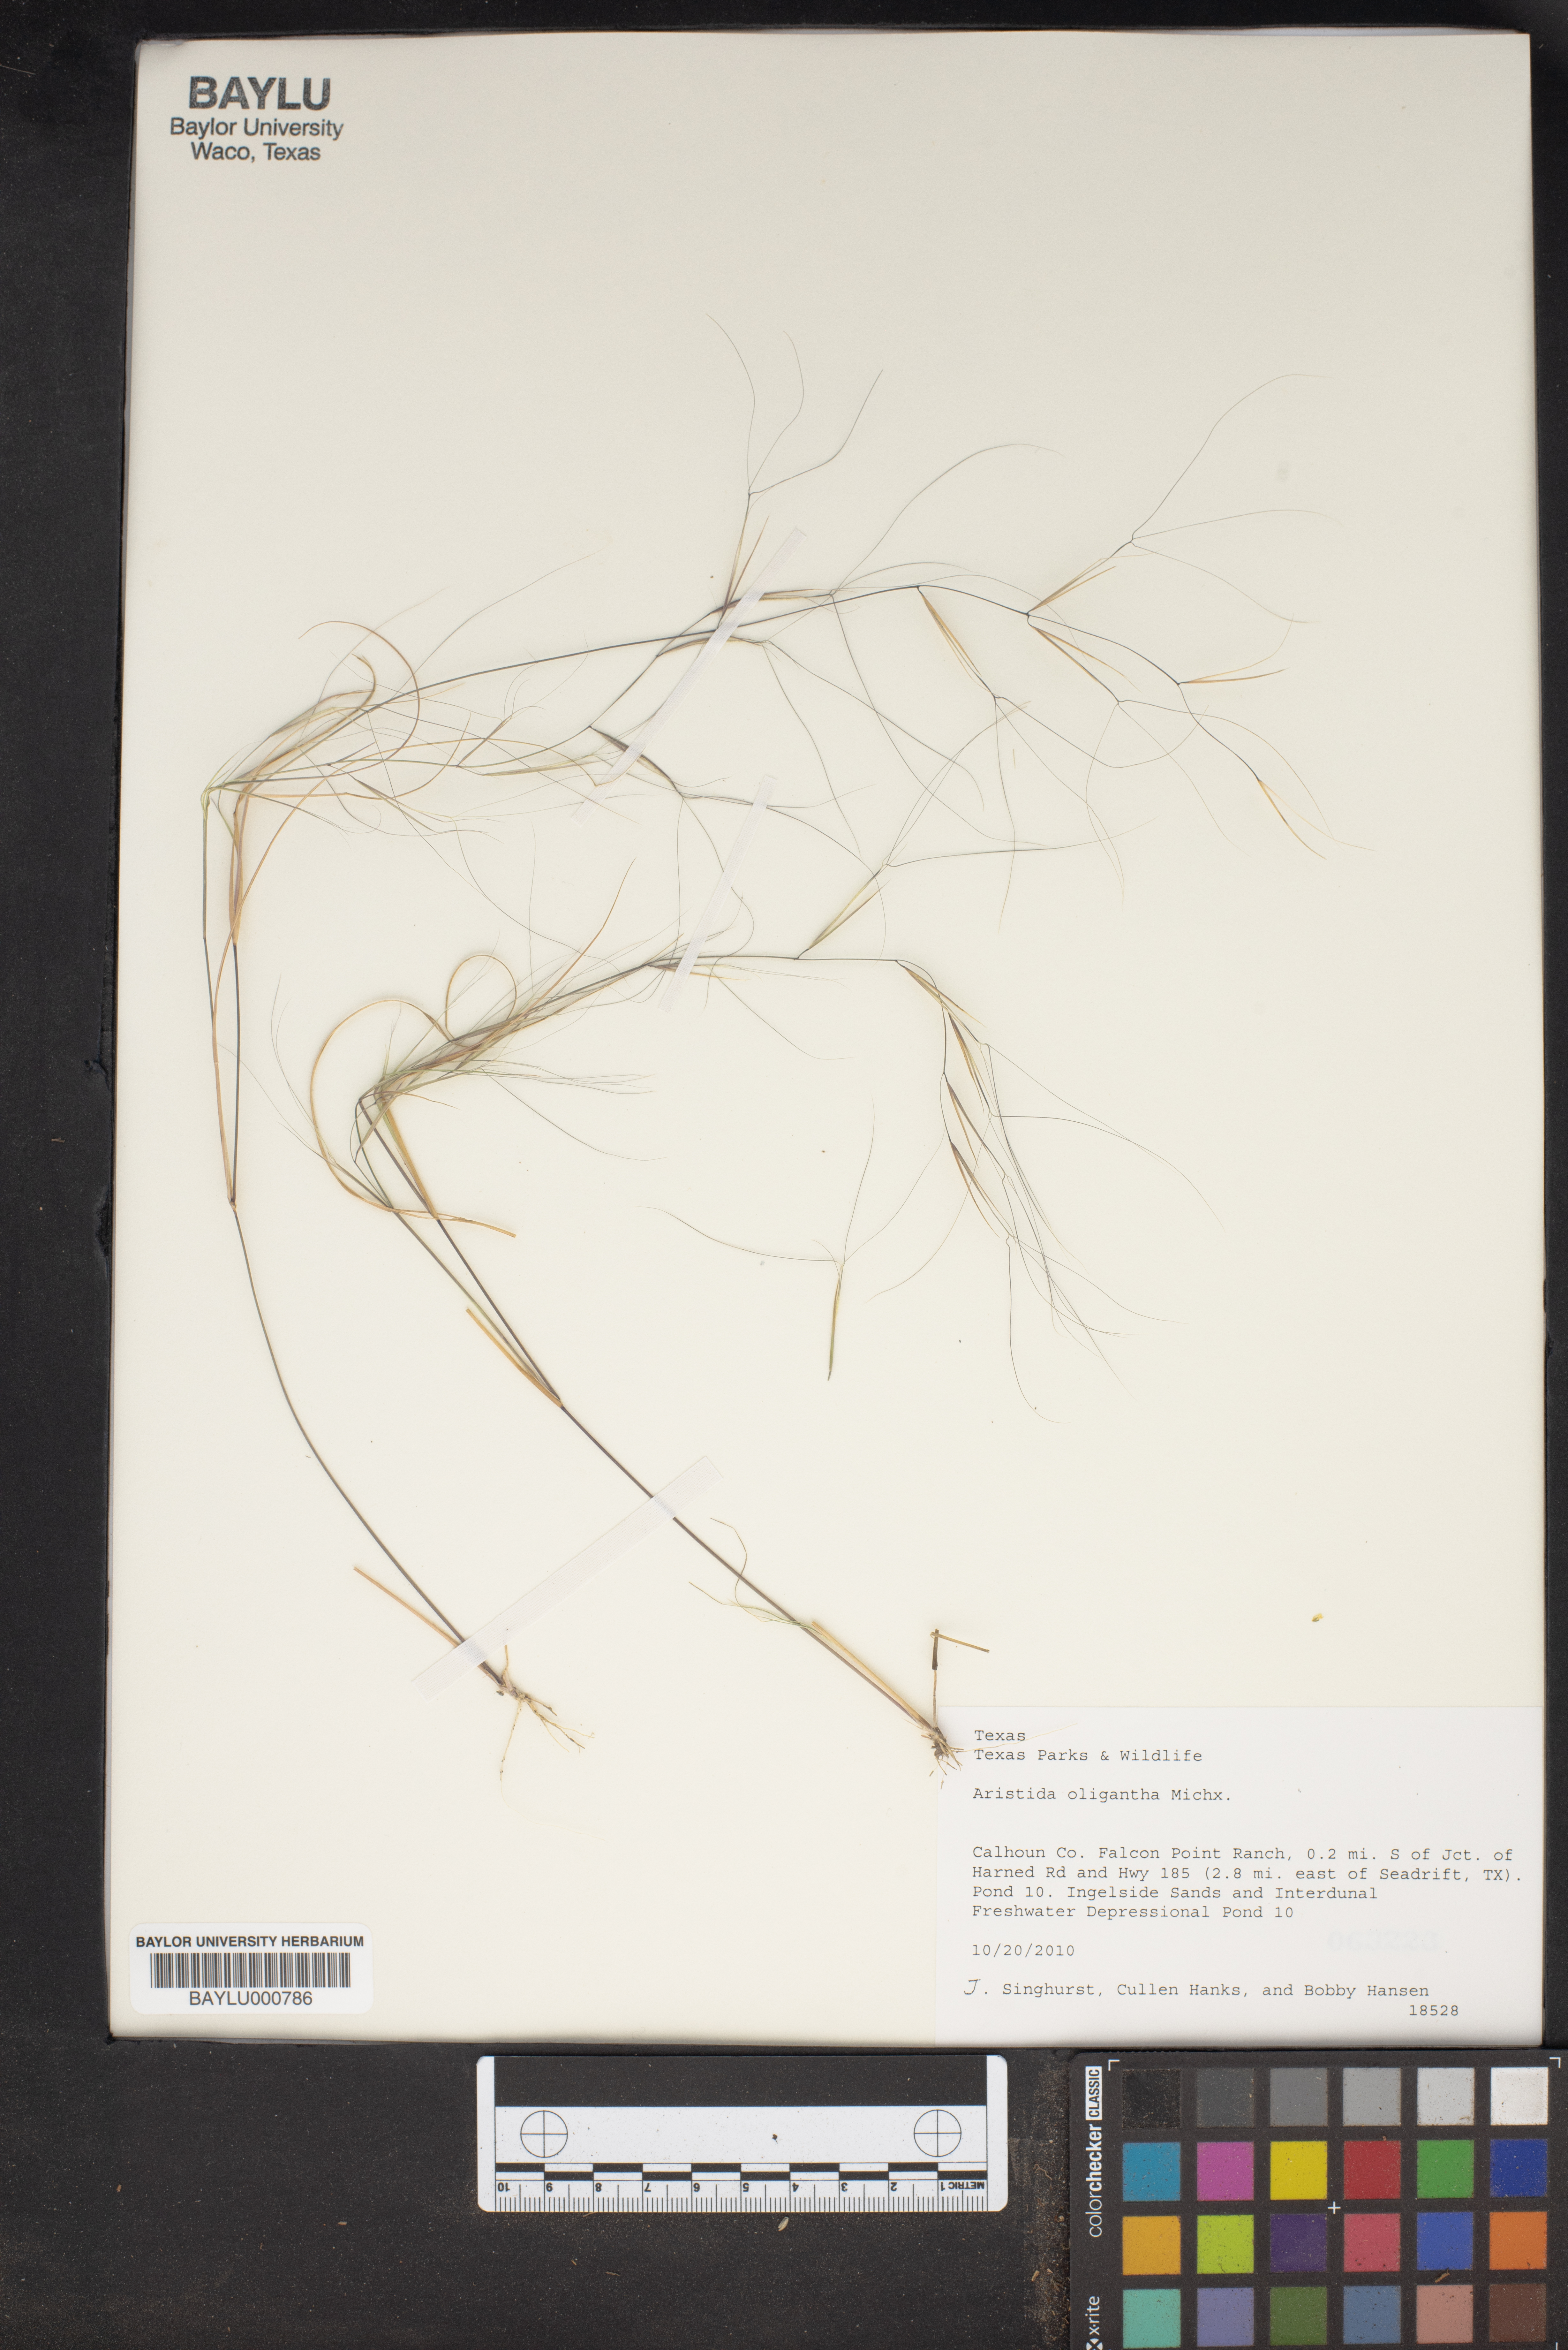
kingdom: Plantae
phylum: Tracheophyta
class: Liliopsida
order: Poales
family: Poaceae
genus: Aristida
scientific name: Aristida oligantha
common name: Few-flowered aristida
